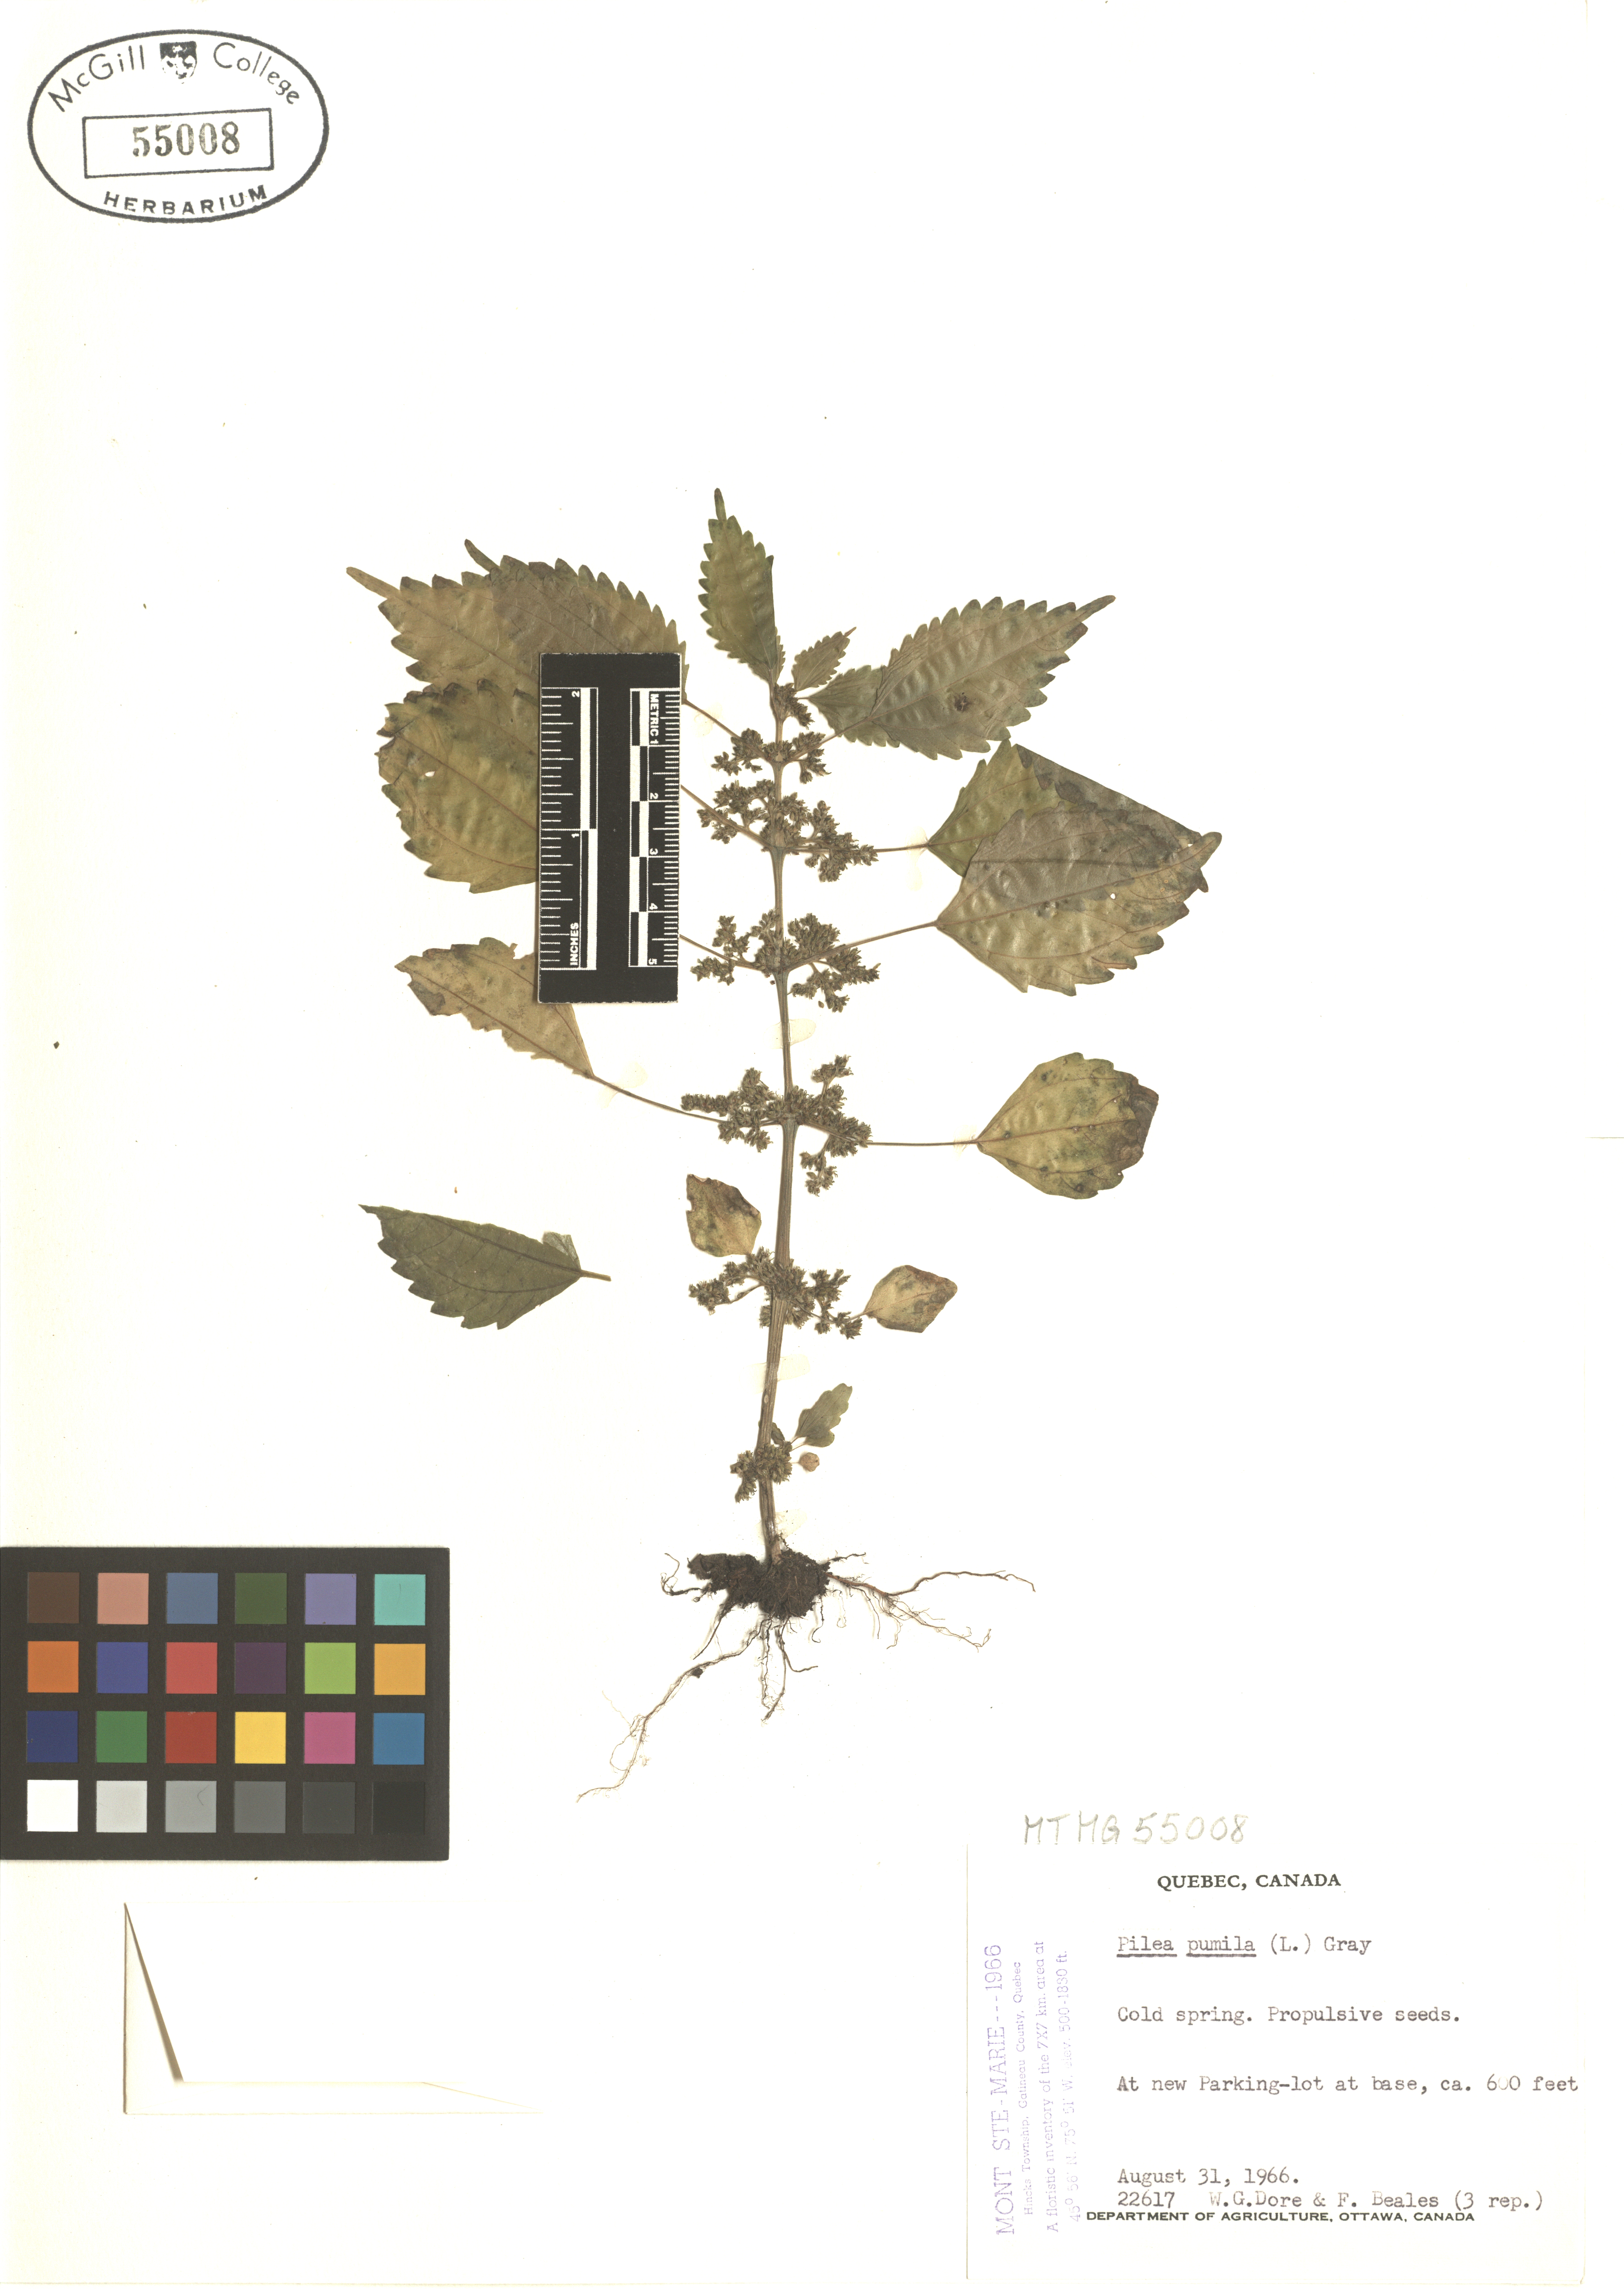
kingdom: Plantae
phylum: Tracheophyta
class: Magnoliopsida
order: Rosales
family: Urticaceae
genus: Pilea
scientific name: Pilea pumila
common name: Clearweed
